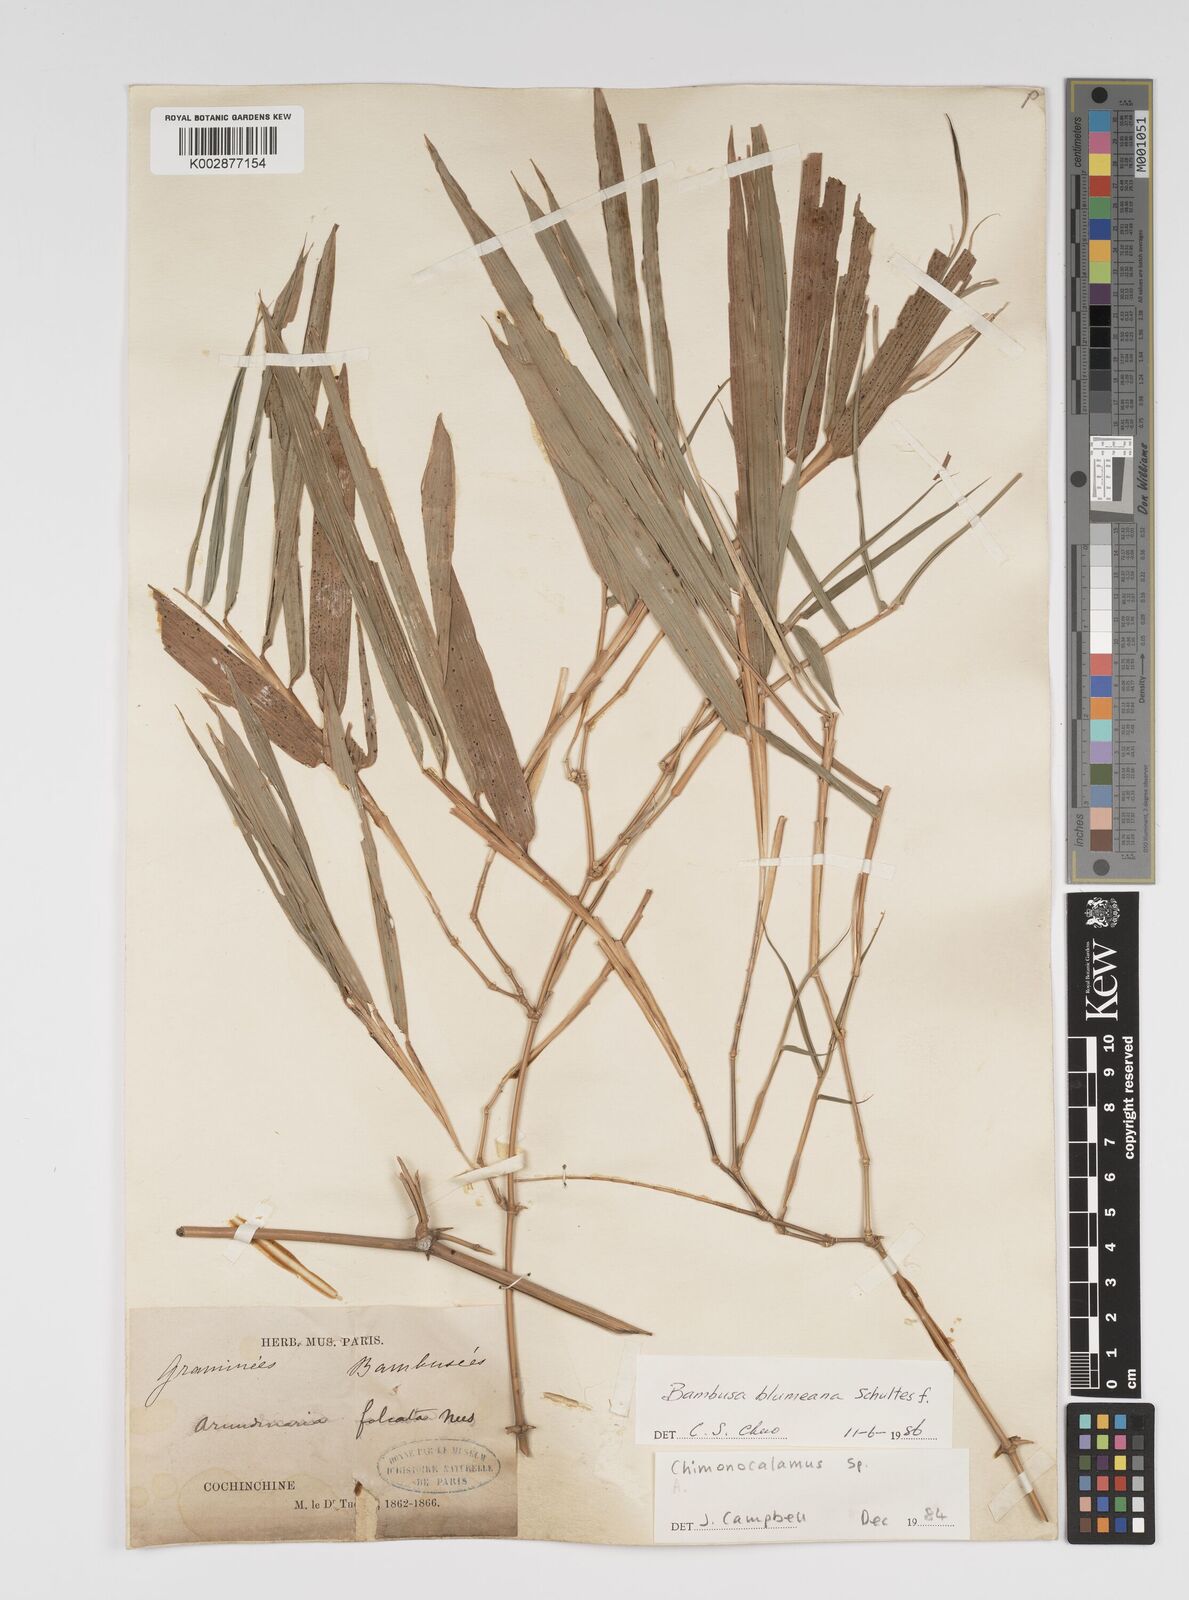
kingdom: Plantae
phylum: Tracheophyta
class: Liliopsida
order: Poales
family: Poaceae
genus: Bambusa
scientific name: Bambusa spinosa
